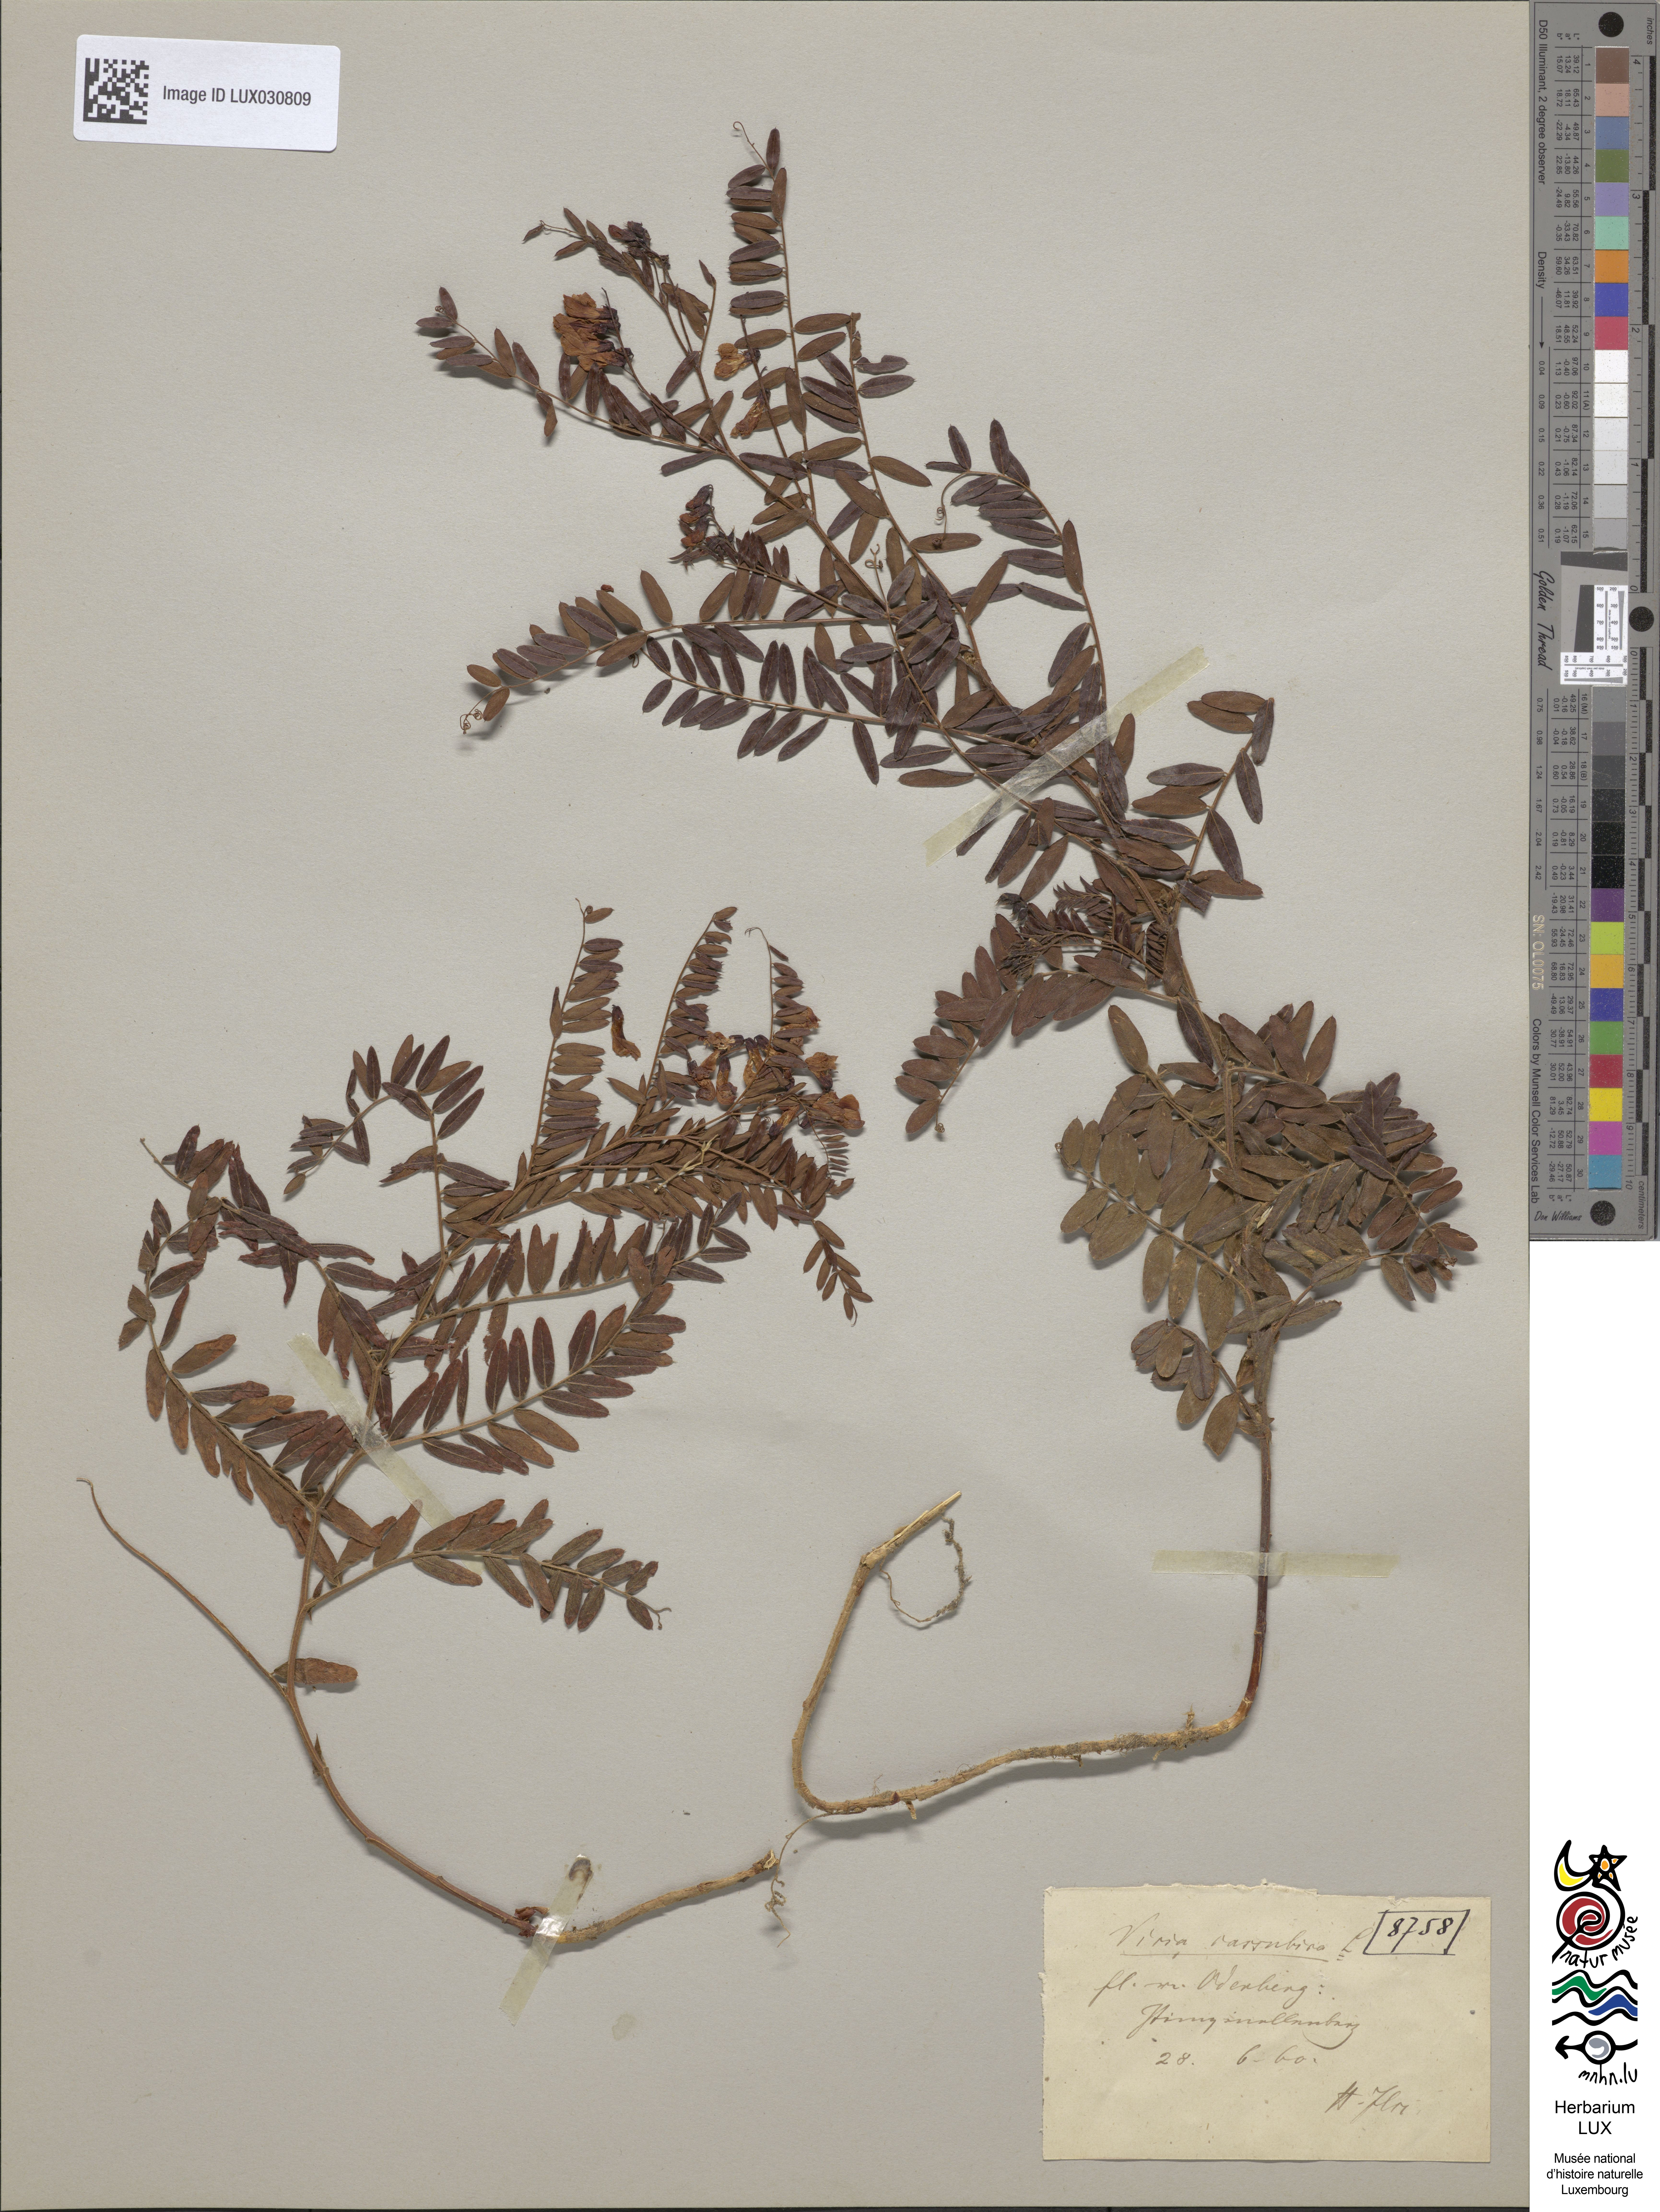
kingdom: Plantae
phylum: Tracheophyta
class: Magnoliopsida
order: Fabales
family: Fabaceae
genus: Vicia
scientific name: Vicia cassubica
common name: Danzig vetch
